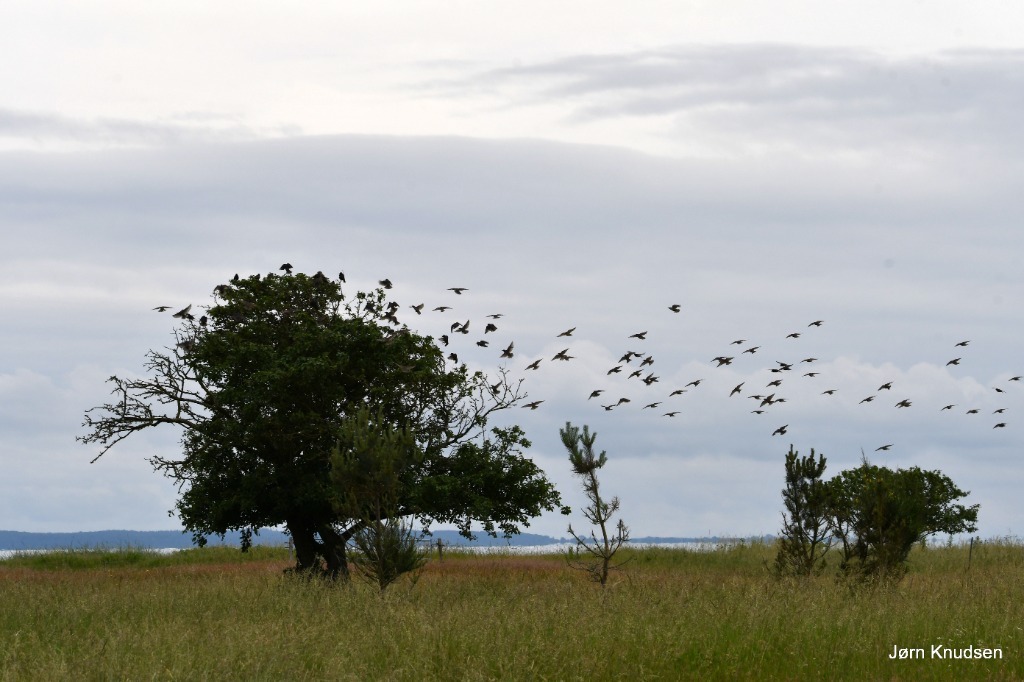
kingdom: Animalia
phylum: Chordata
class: Aves
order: Passeriformes
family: Sturnidae
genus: Sturnus
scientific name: Sturnus vulgaris
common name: Stær
